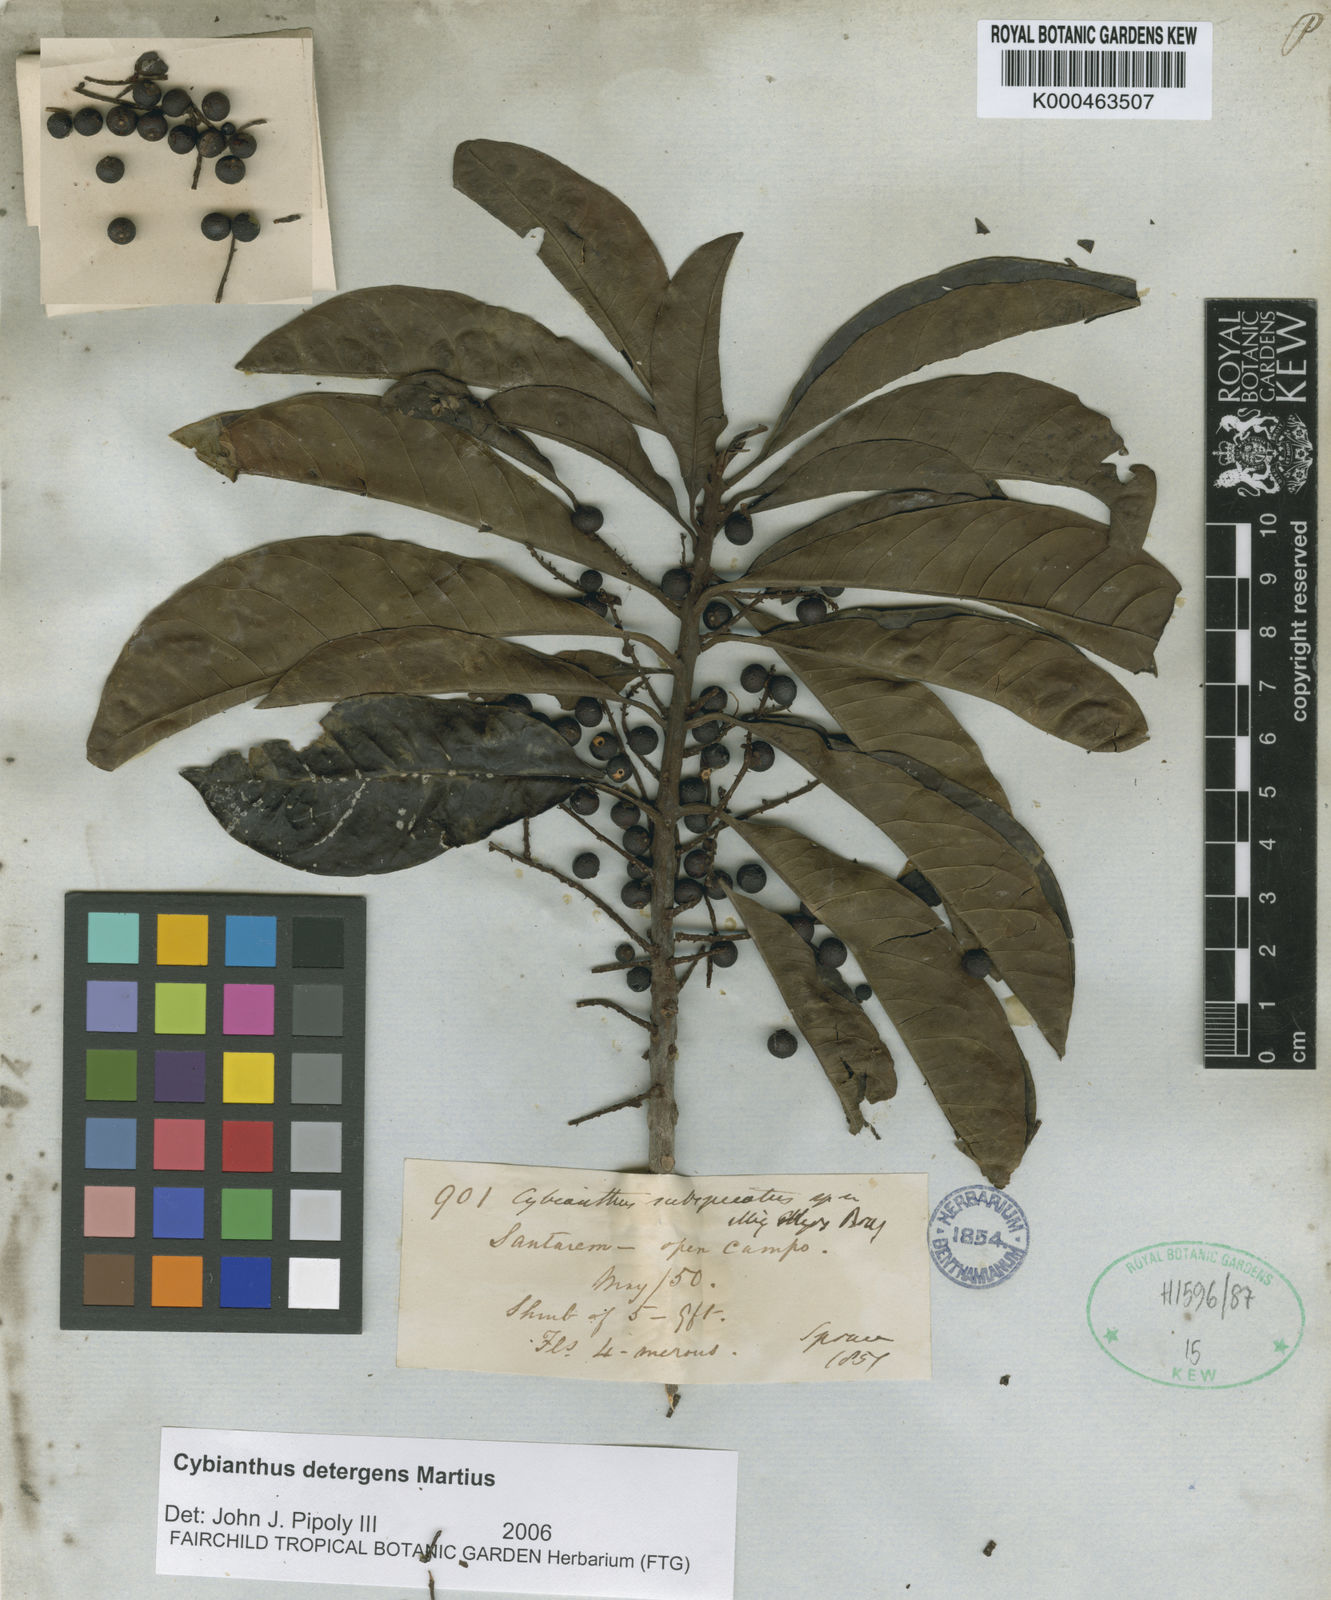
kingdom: Plantae
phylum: Tracheophyta
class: Magnoliopsida
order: Ericales
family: Primulaceae
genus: Cybianthus
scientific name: Cybianthus detergens
